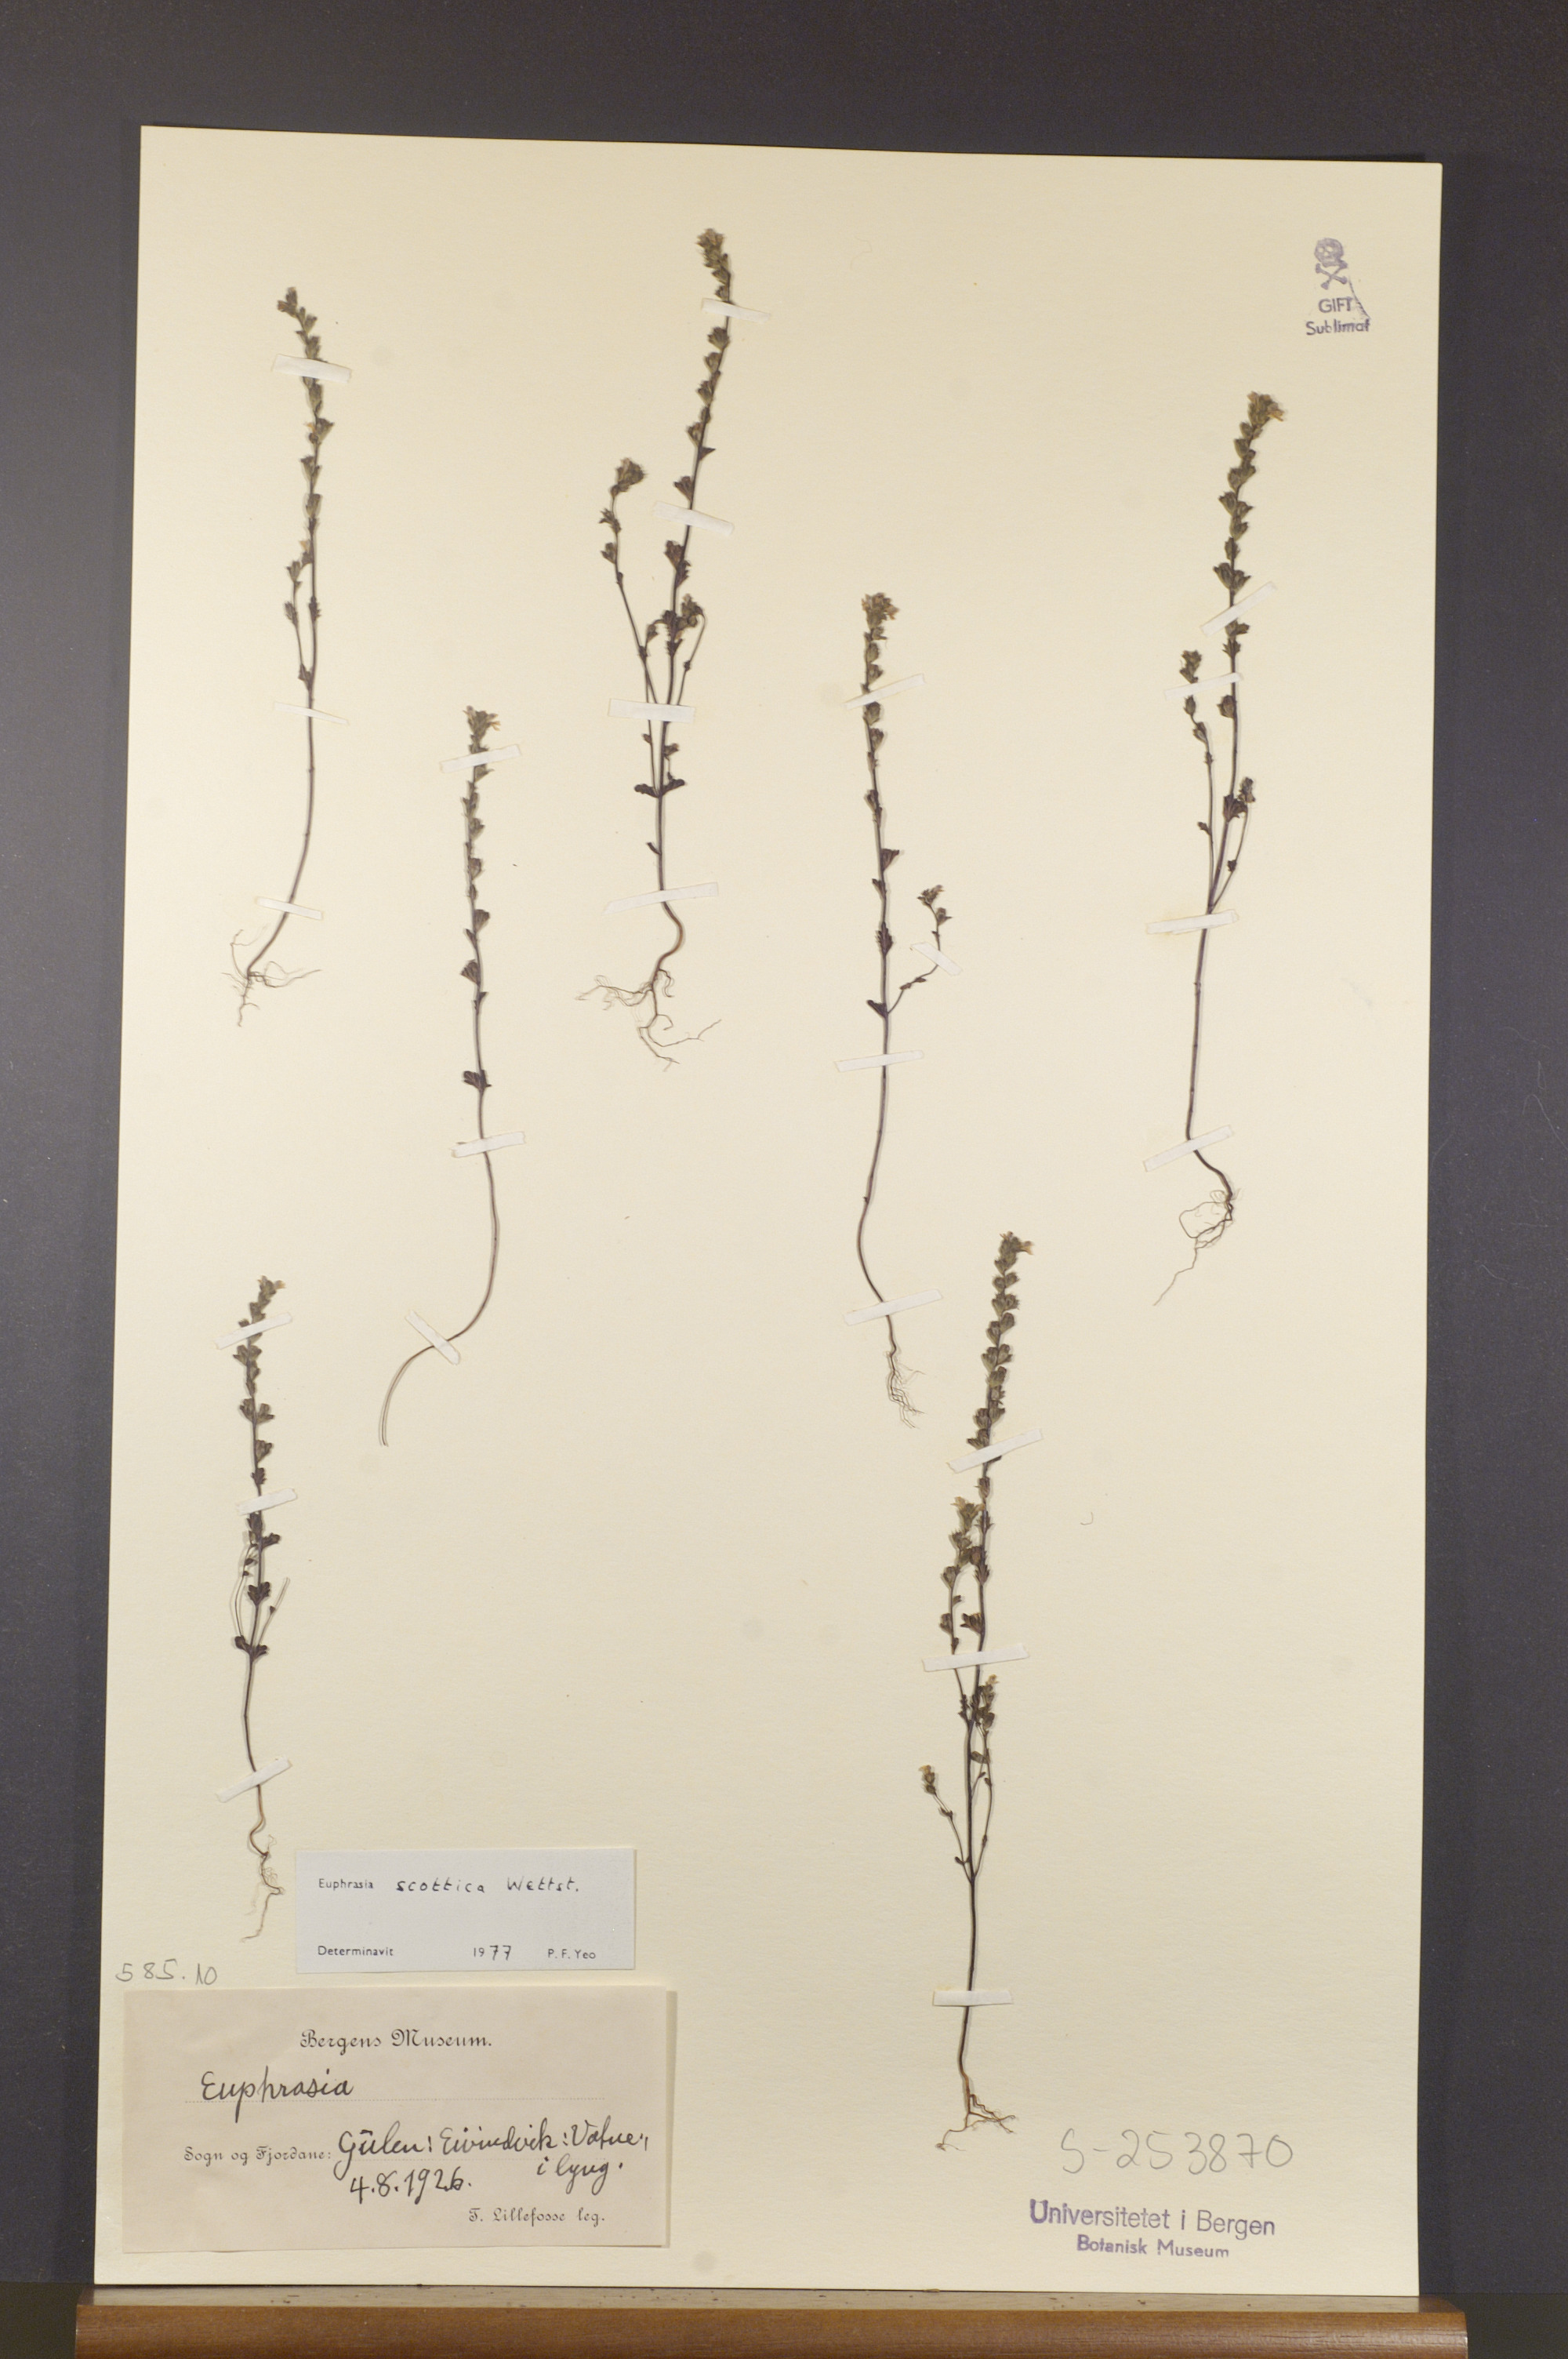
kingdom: Plantae
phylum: Tracheophyta
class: Magnoliopsida
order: Lamiales
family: Orobanchaceae
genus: Euphrasia
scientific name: Euphrasia scottica
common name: Slender scottish eyebright
